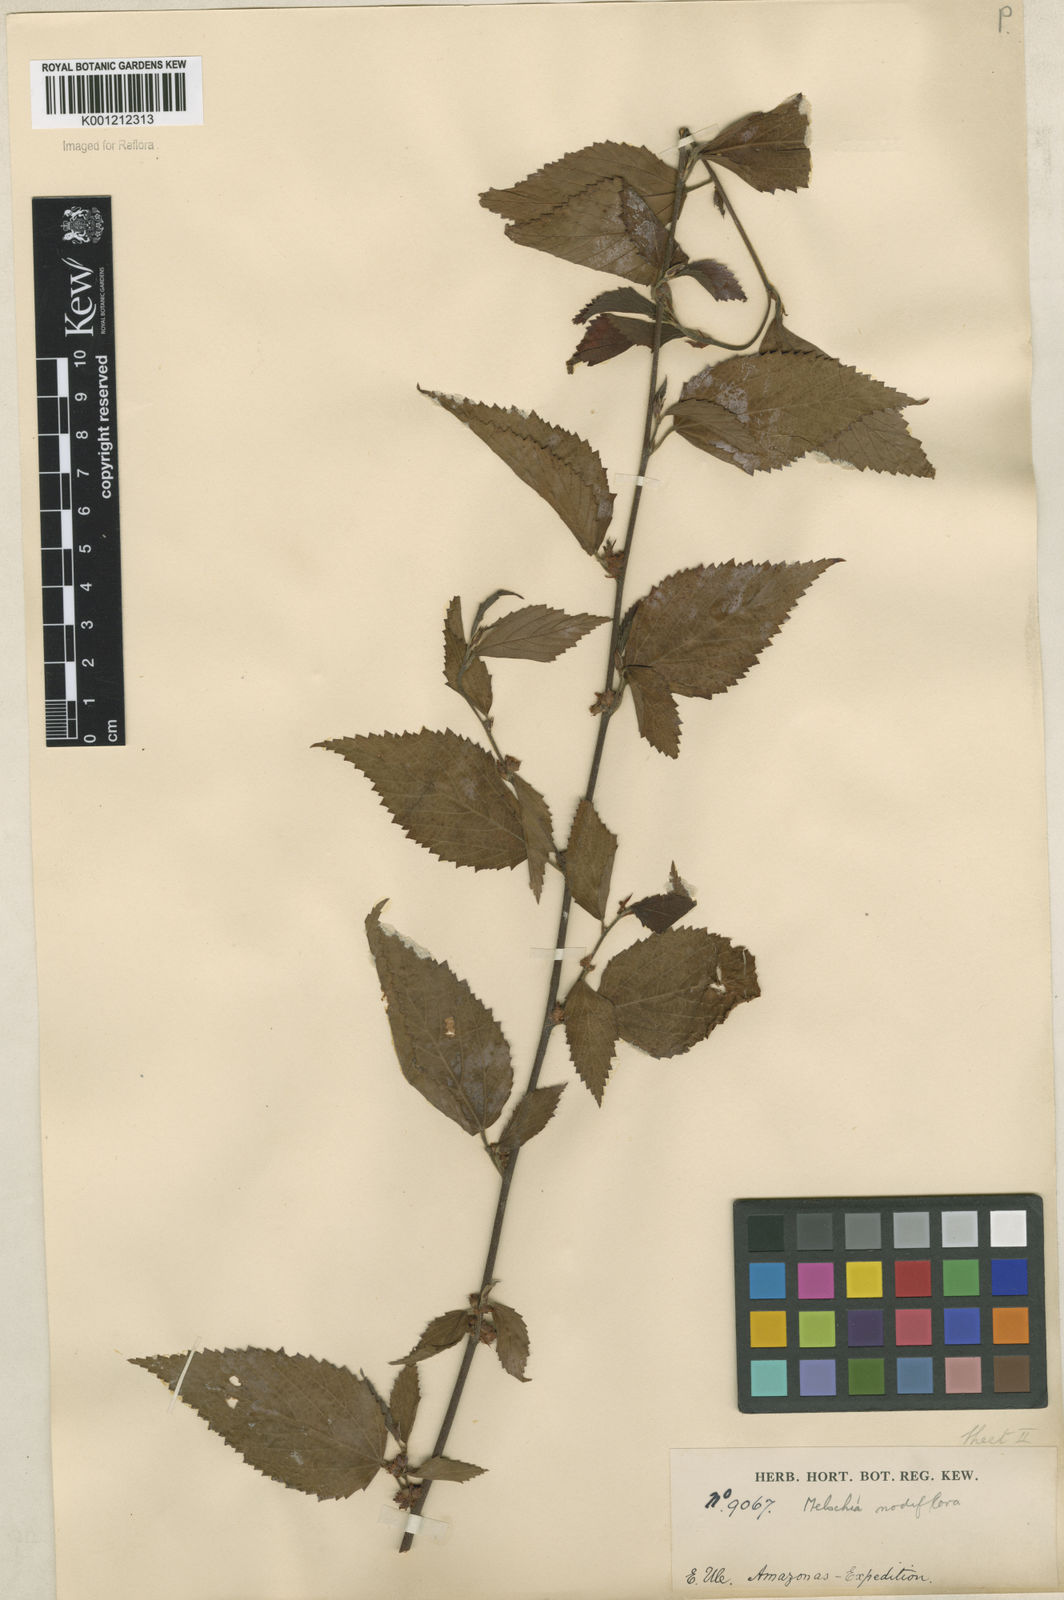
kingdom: Plantae
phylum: Tracheophyta
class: Magnoliopsida
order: Malvales
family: Malvaceae
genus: Melochia
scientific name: Melochia nodiflora
